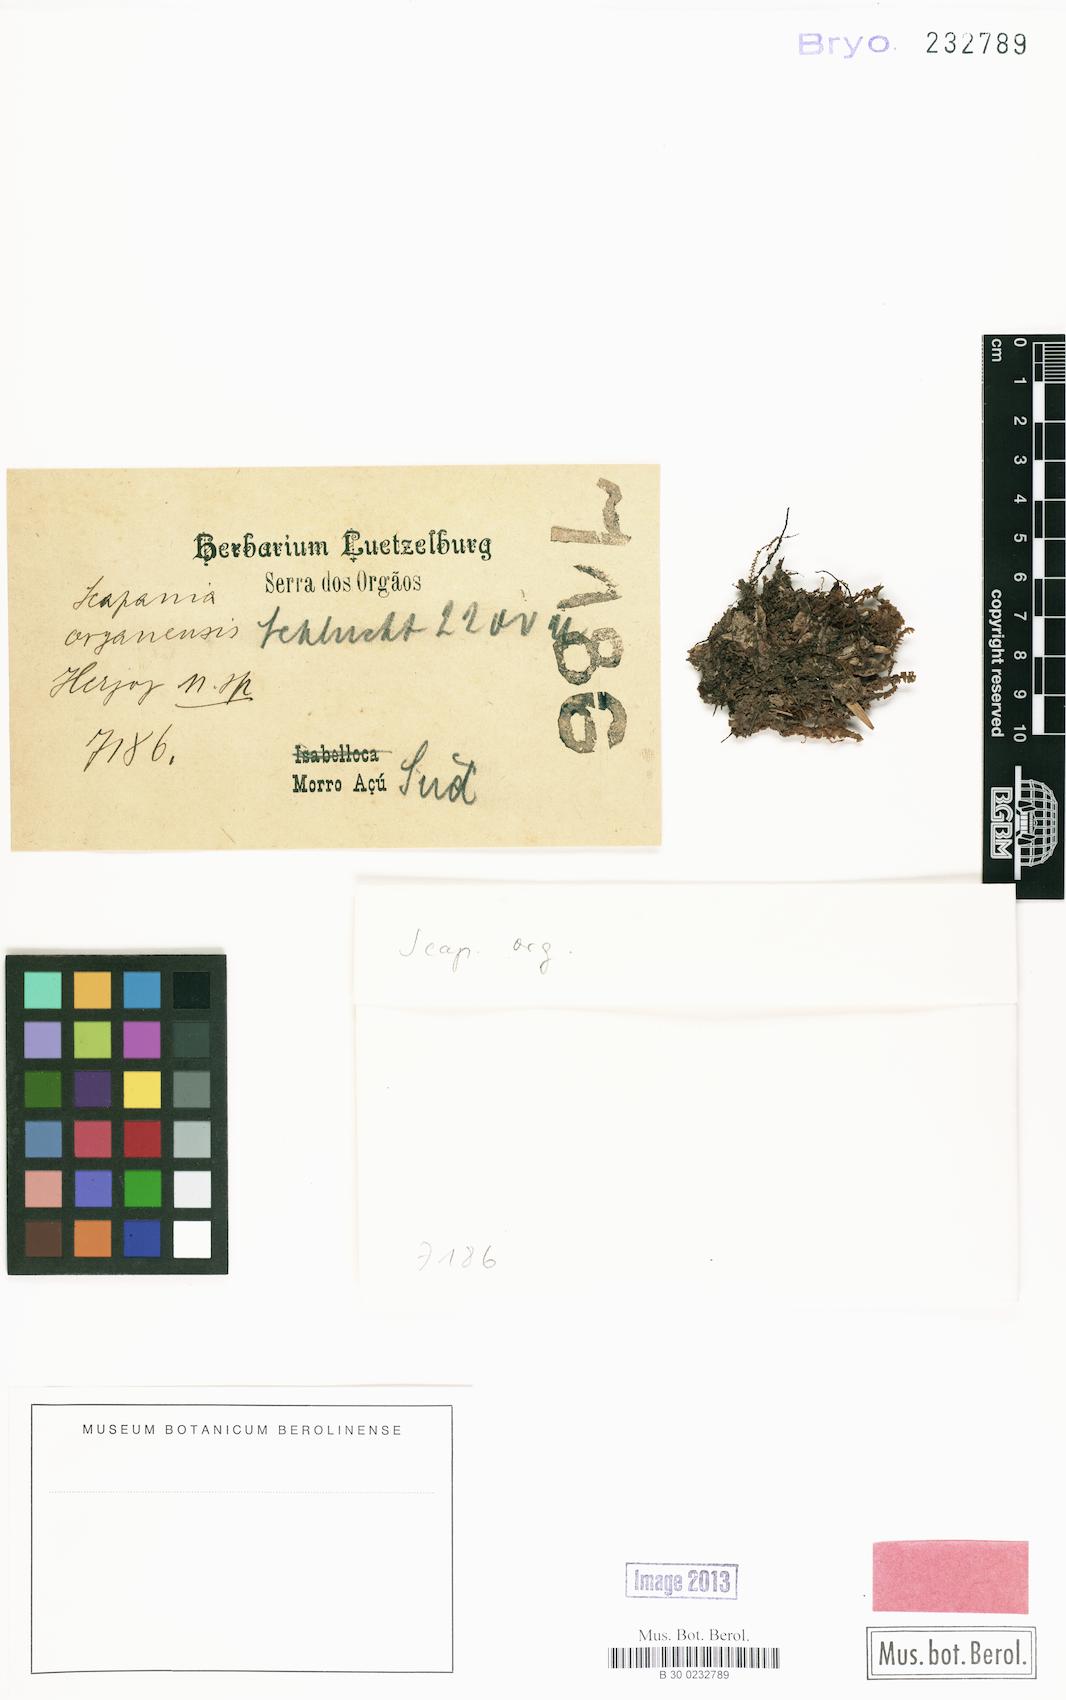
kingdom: Plantae
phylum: Marchantiophyta
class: Jungermanniopsida
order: Jungermanniales
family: Scapaniaceae
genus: Scapania
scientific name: Scapania portoricensis
